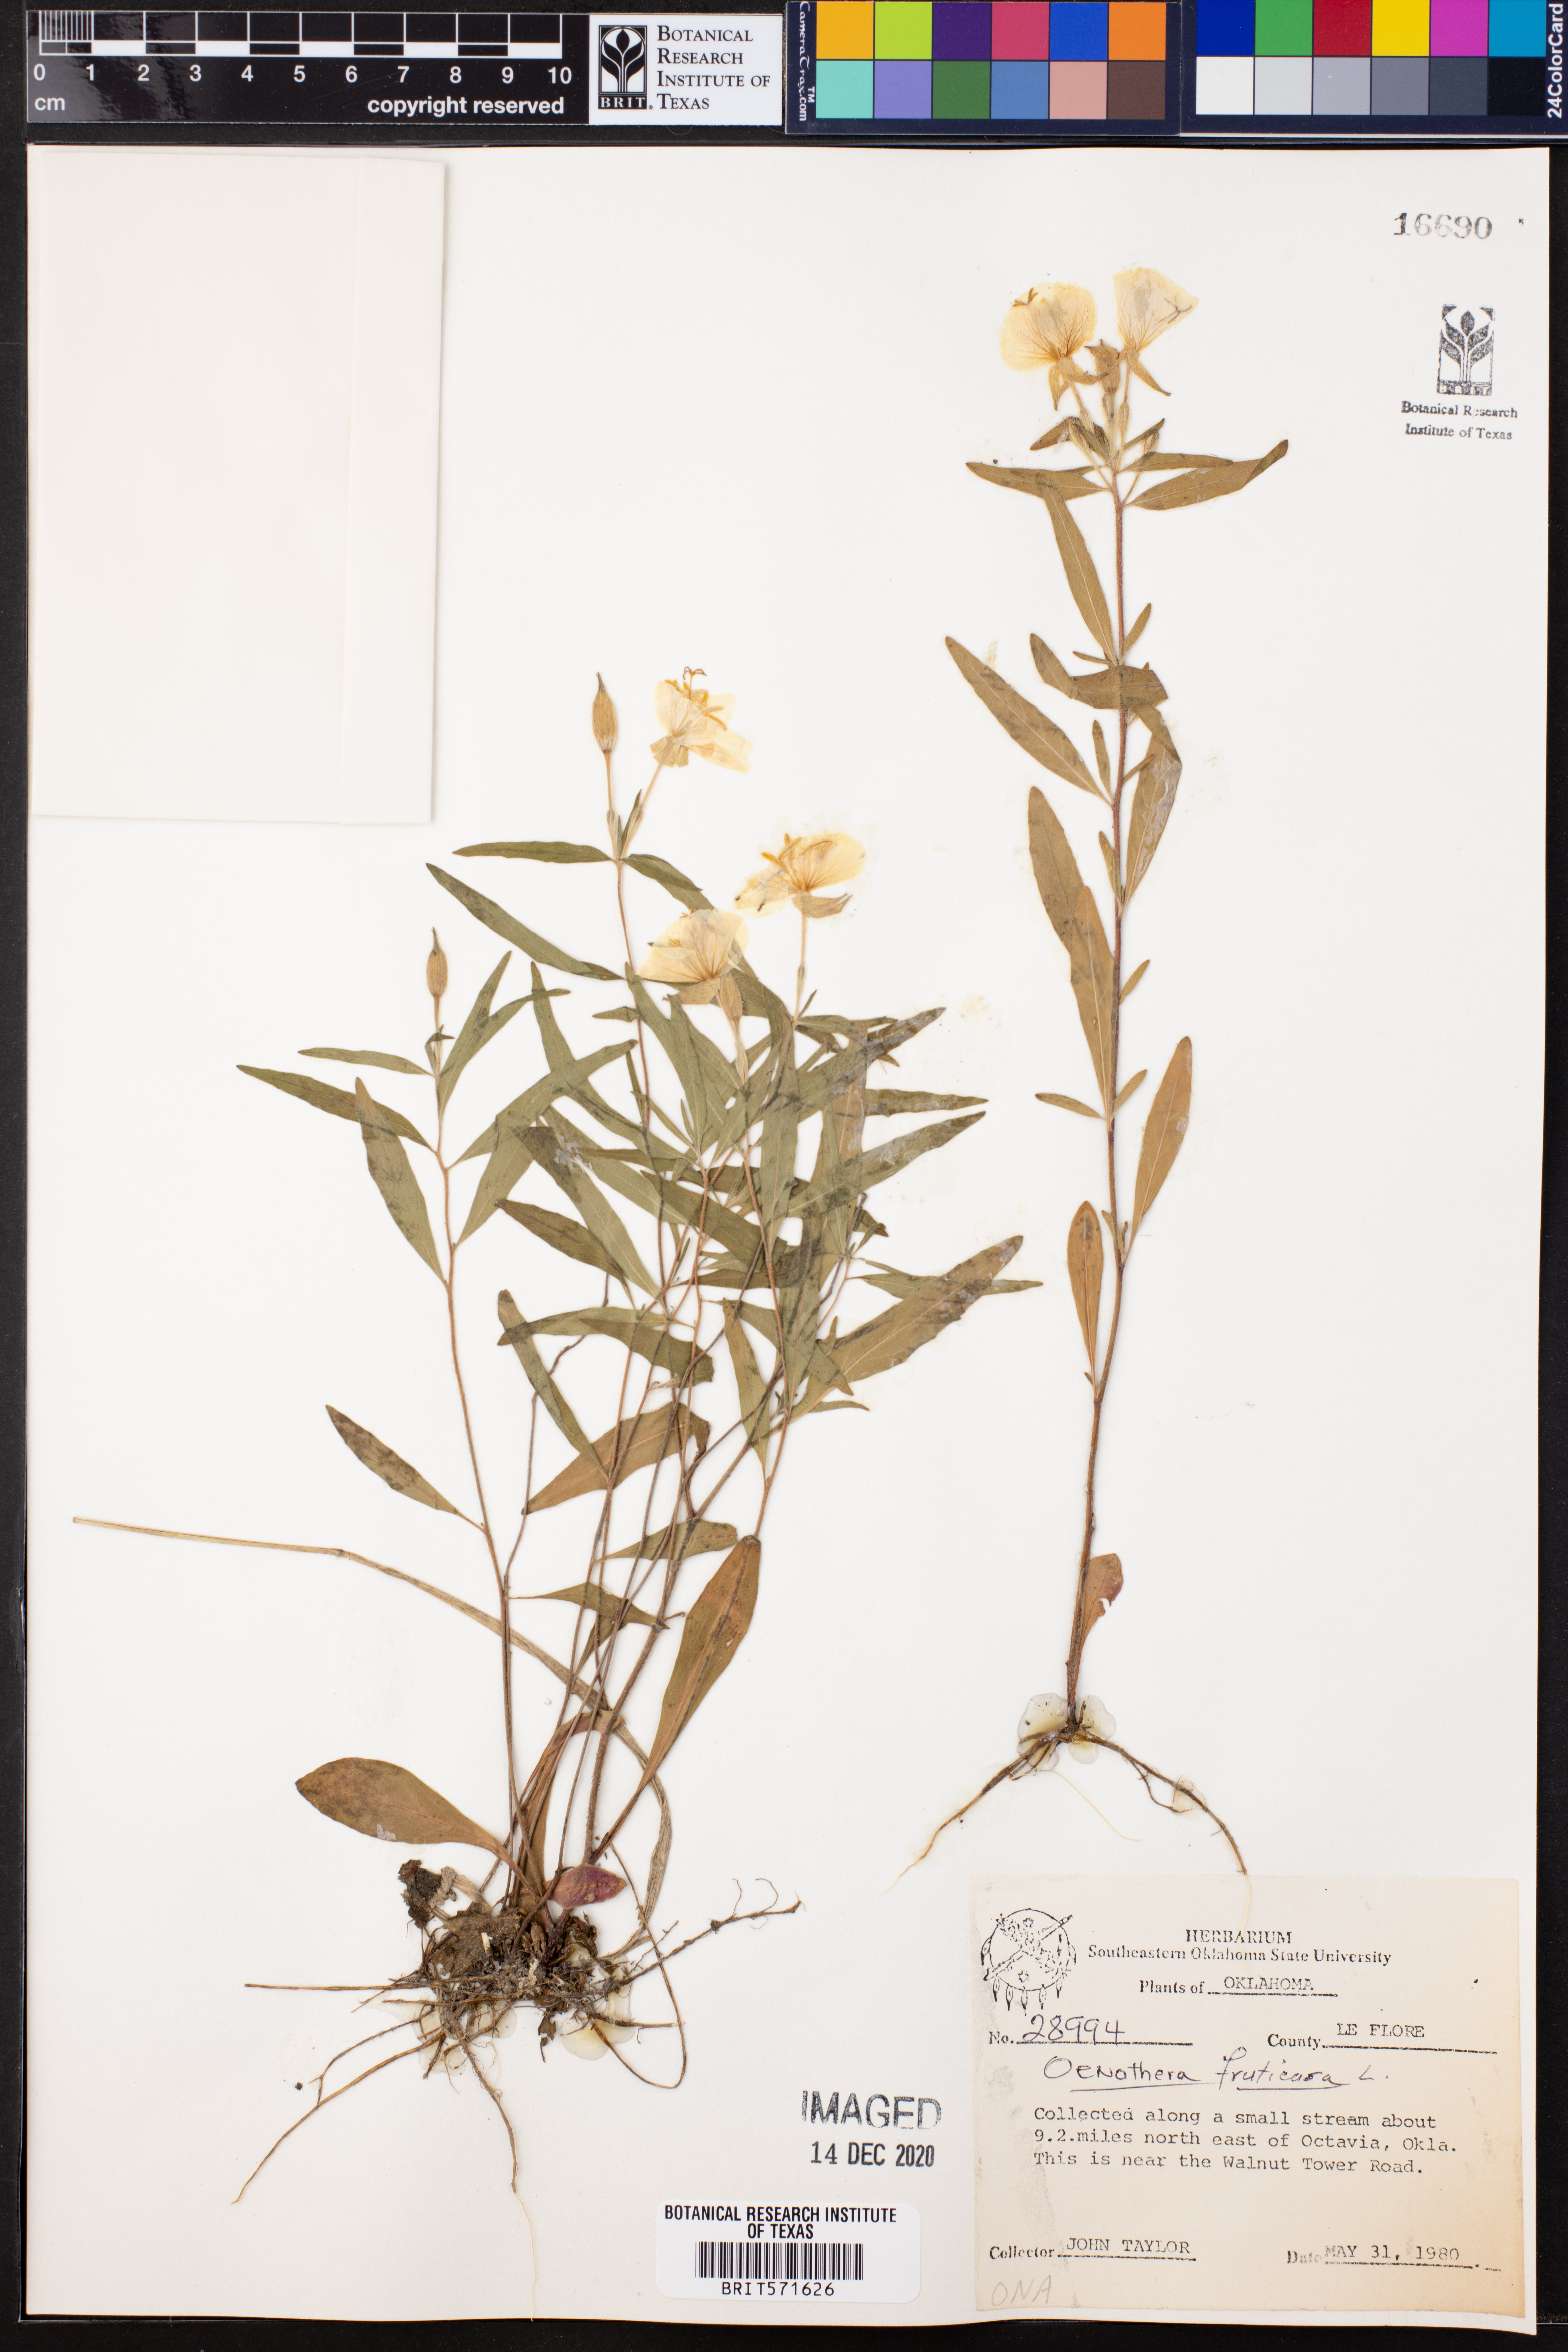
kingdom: Plantae
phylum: Tracheophyta
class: Magnoliopsida
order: Myrtales
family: Onagraceae
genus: Oenothera
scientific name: Oenothera fruticosa
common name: Southern sundrops
